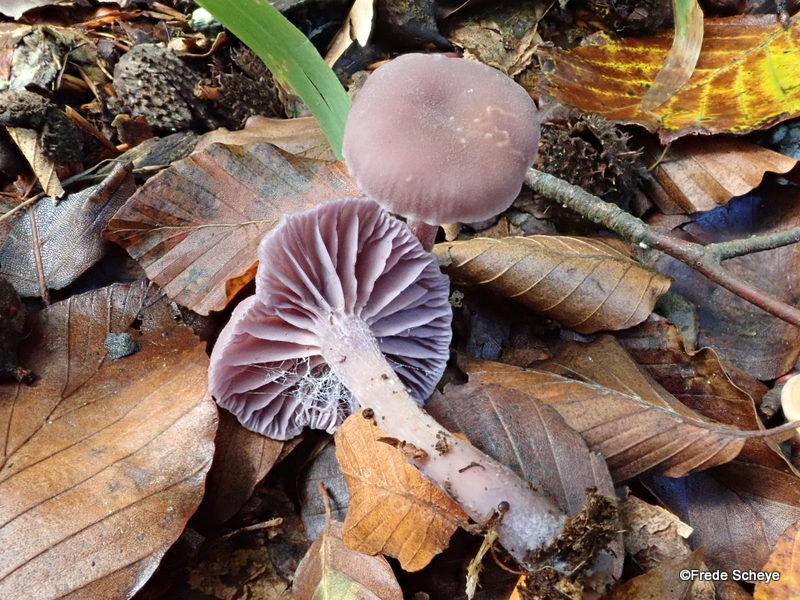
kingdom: Fungi
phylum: Basidiomycota
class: Agaricomycetes
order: Agaricales
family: Hydnangiaceae
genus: Laccaria
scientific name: Laccaria amethystina
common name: violet ametysthat
